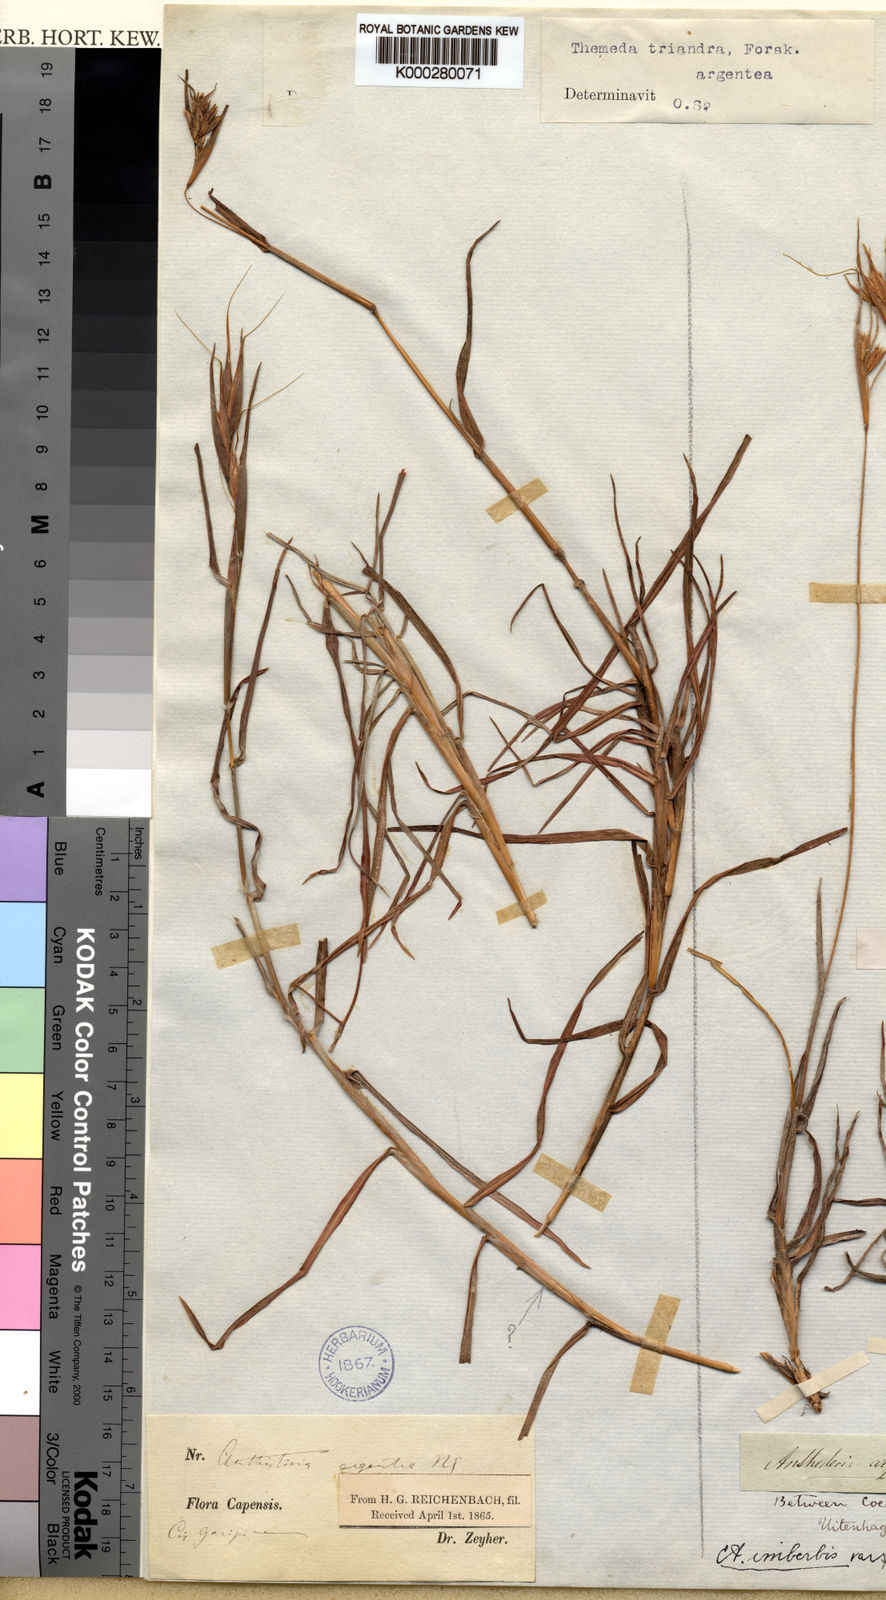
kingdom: Plantae
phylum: Tracheophyta
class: Liliopsida
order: Poales
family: Poaceae
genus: Themeda
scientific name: Themeda triandra
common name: Kangaroo grass
